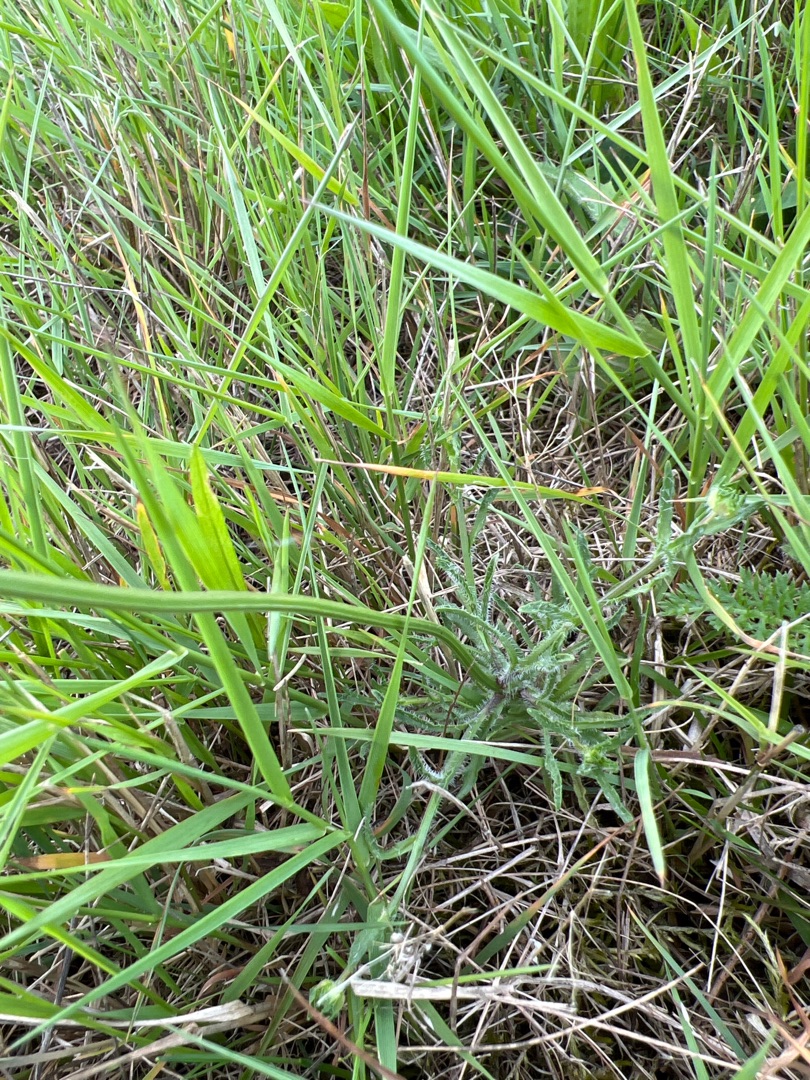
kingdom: Plantae
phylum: Tracheophyta
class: Magnoliopsida
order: Asterales
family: Campanulaceae
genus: Jasione
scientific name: Jasione montana
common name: Blåmunke
